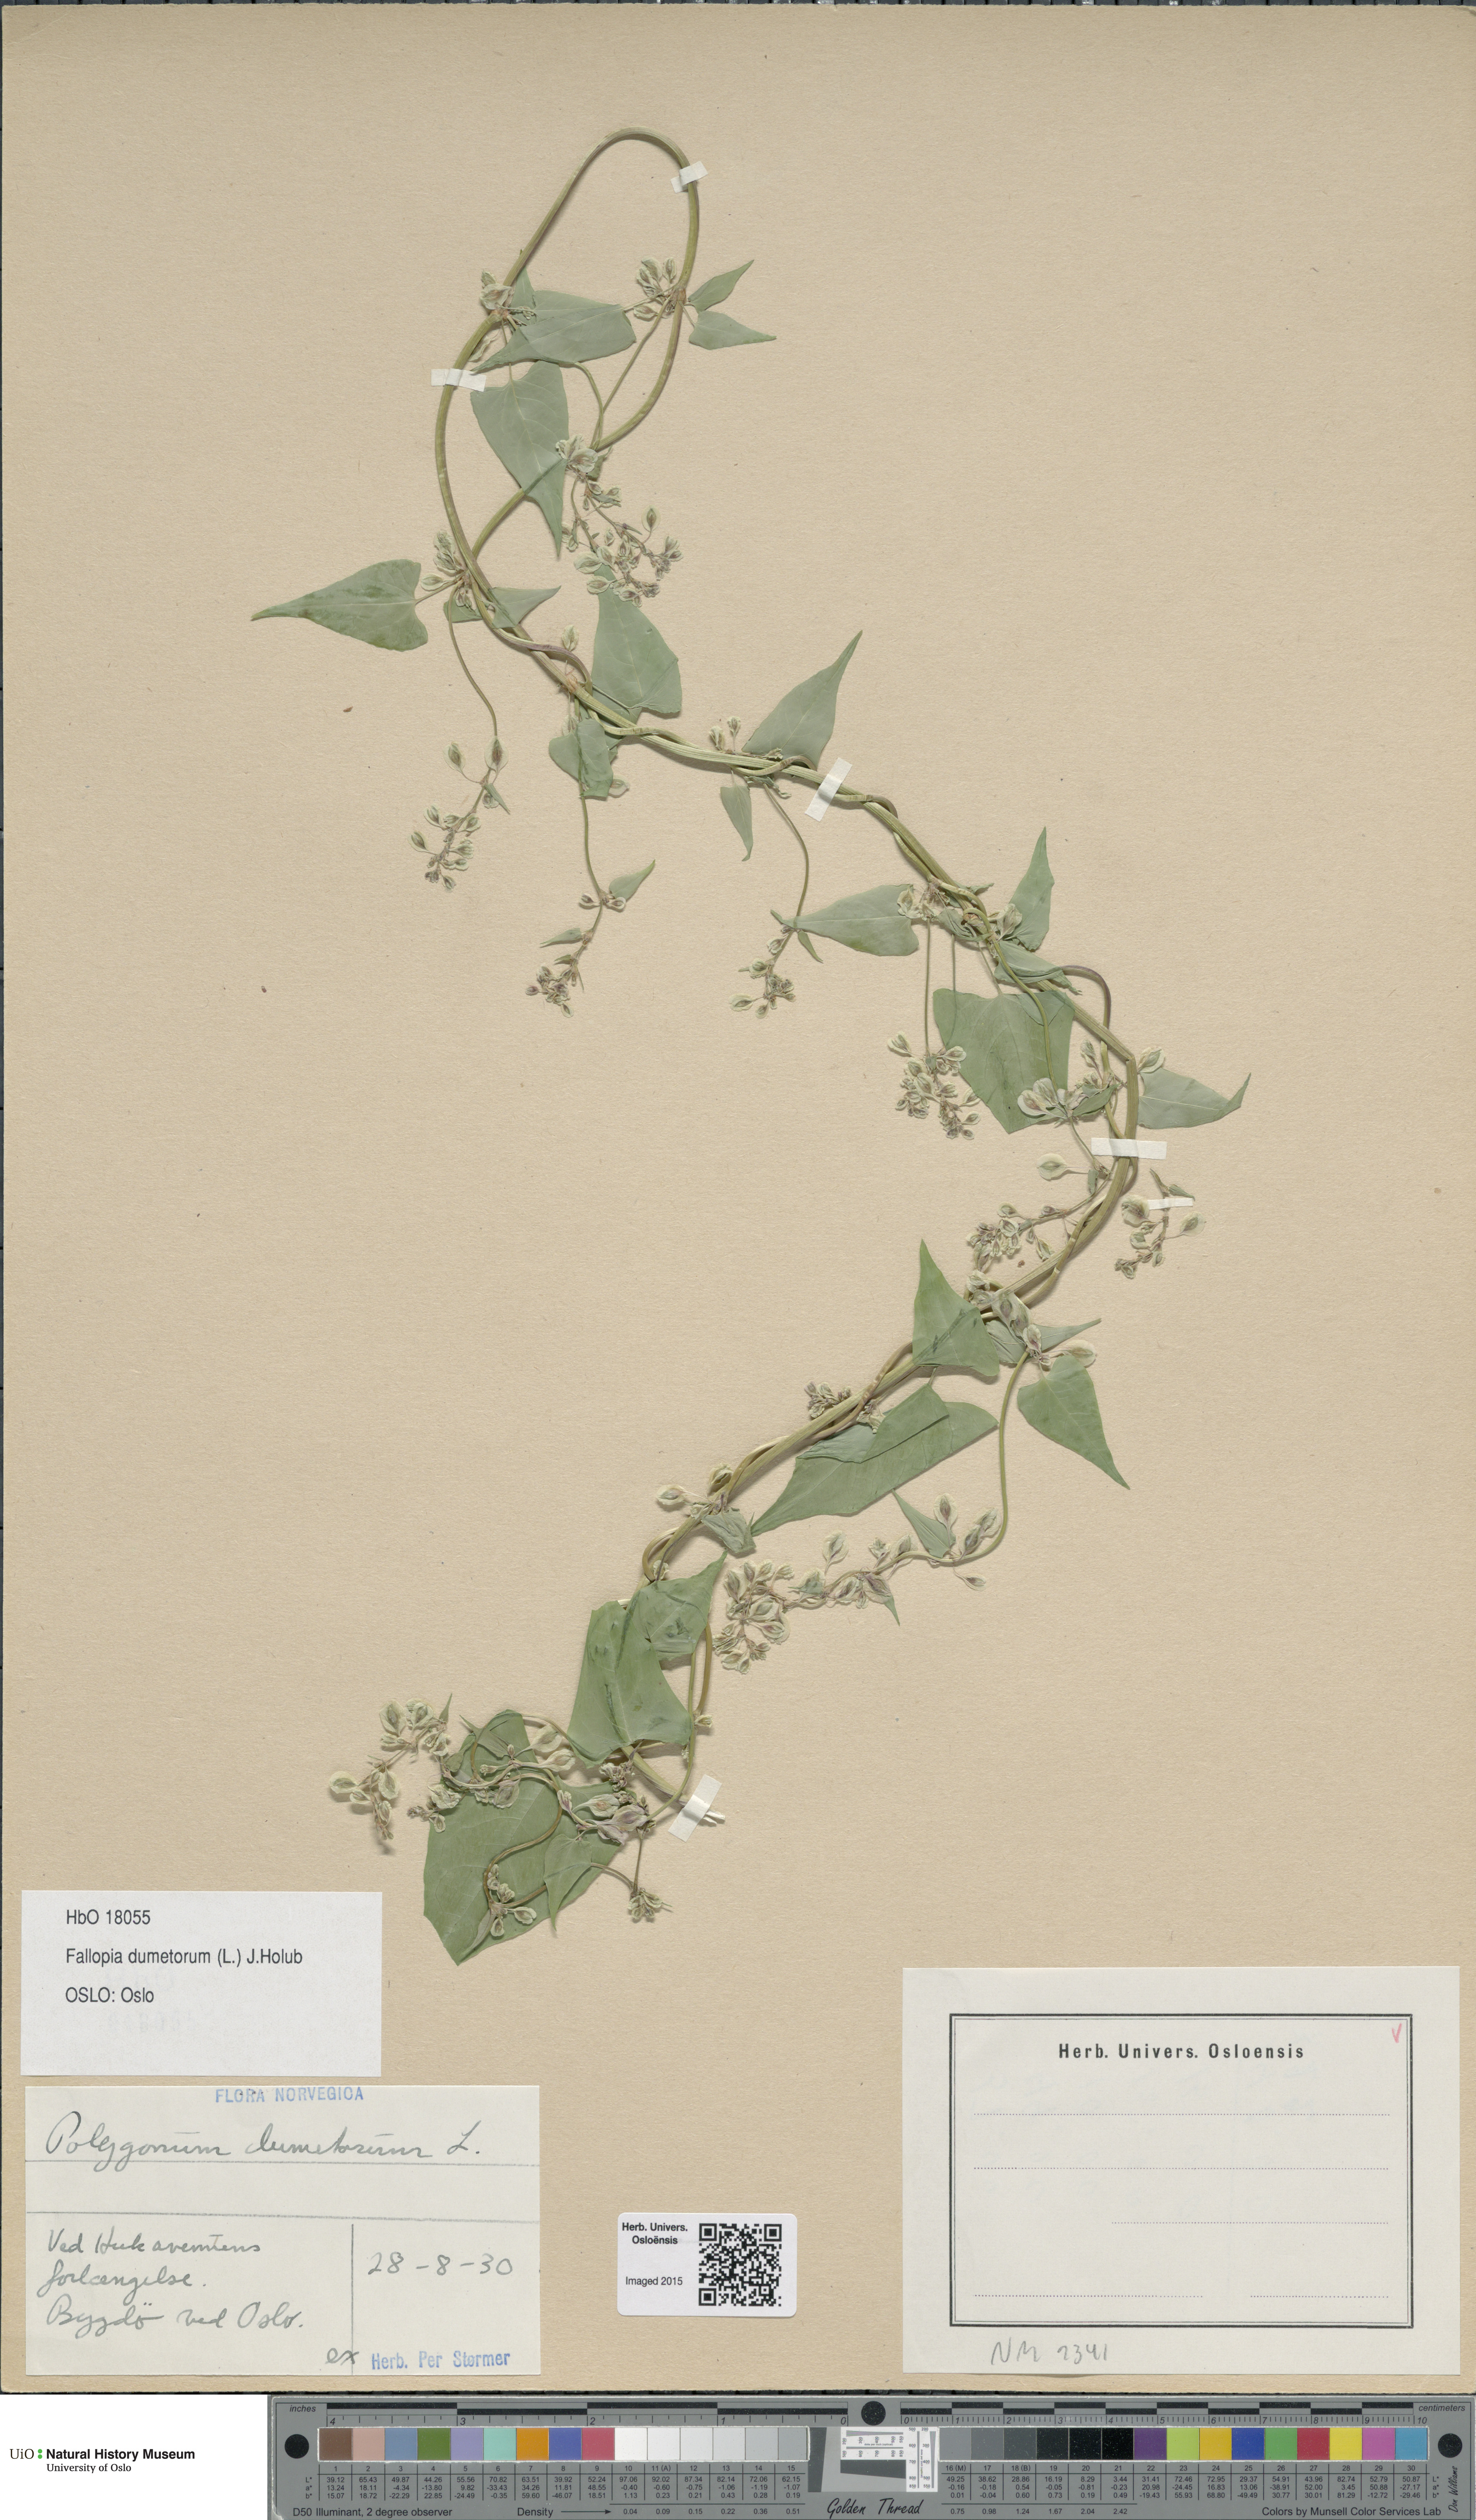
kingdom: Plantae
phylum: Tracheophyta
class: Magnoliopsida
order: Caryophyllales
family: Polygonaceae
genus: Fallopia
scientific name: Fallopia dumetorum
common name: Copse-bindweed
